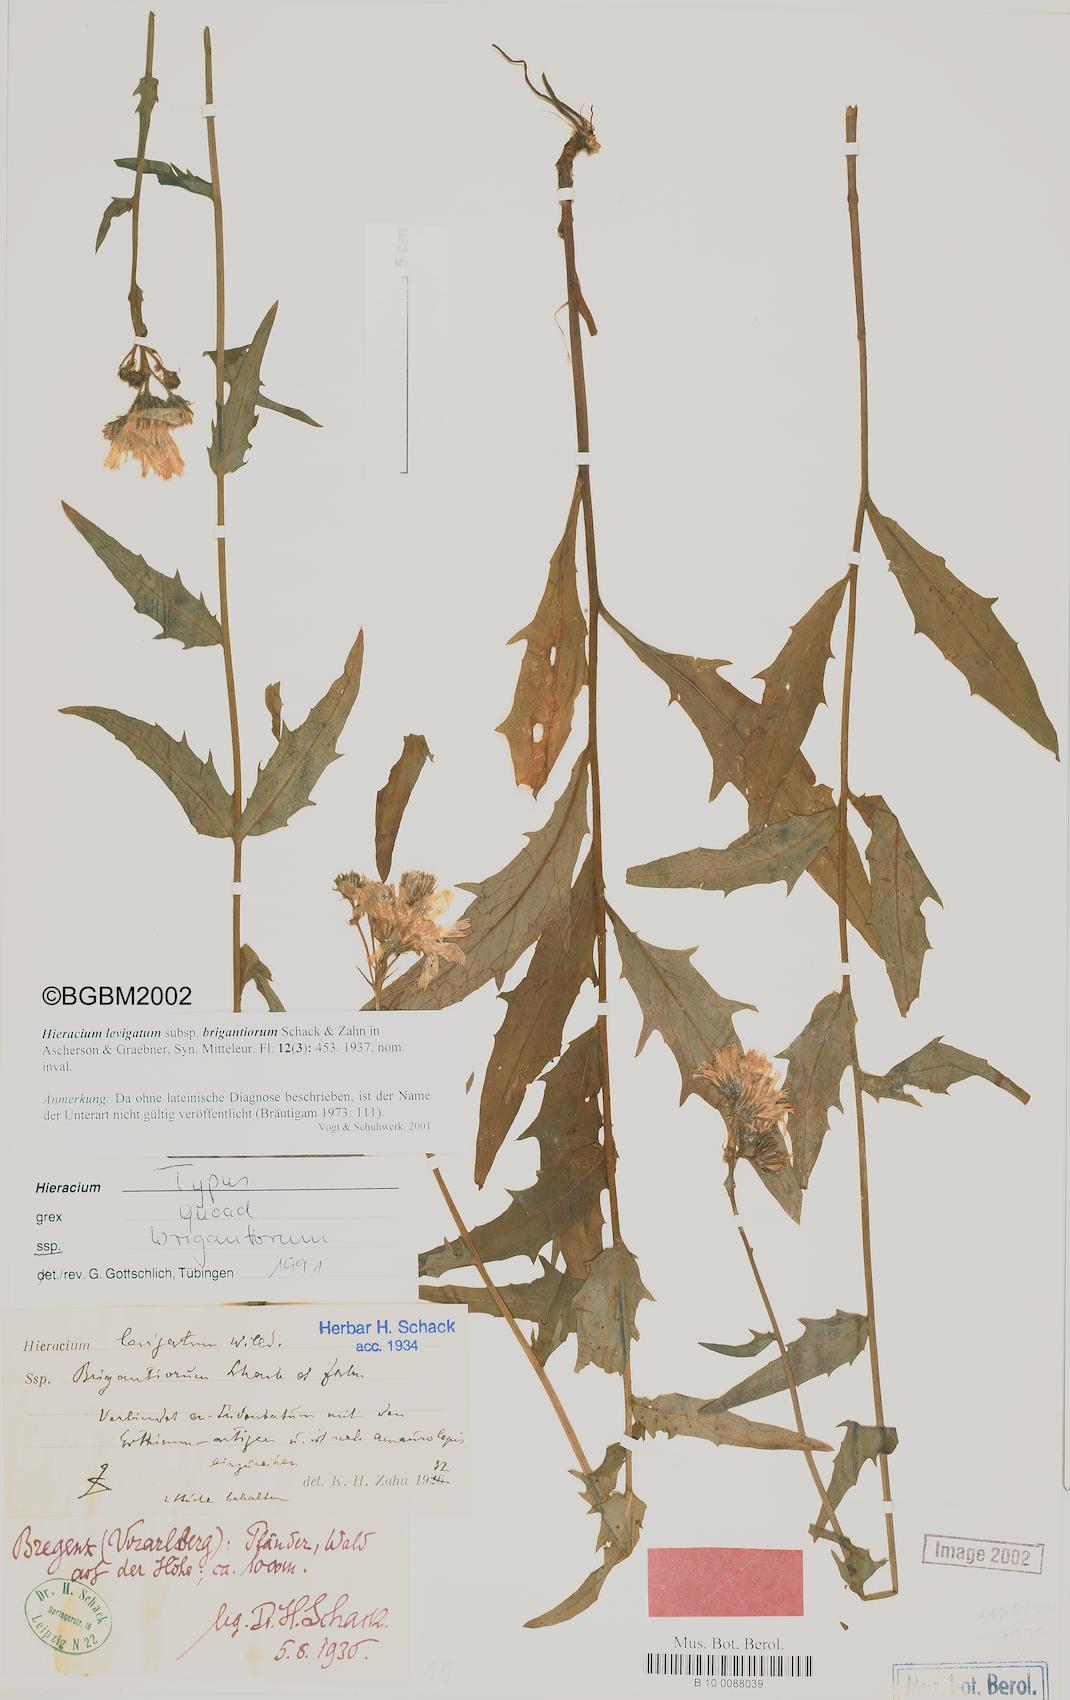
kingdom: Plantae
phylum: Tracheophyta
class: Magnoliopsida
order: Asterales
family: Asteraceae
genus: Hieracium
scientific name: Hieracium laevigatum
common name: Smooth hawkweed
